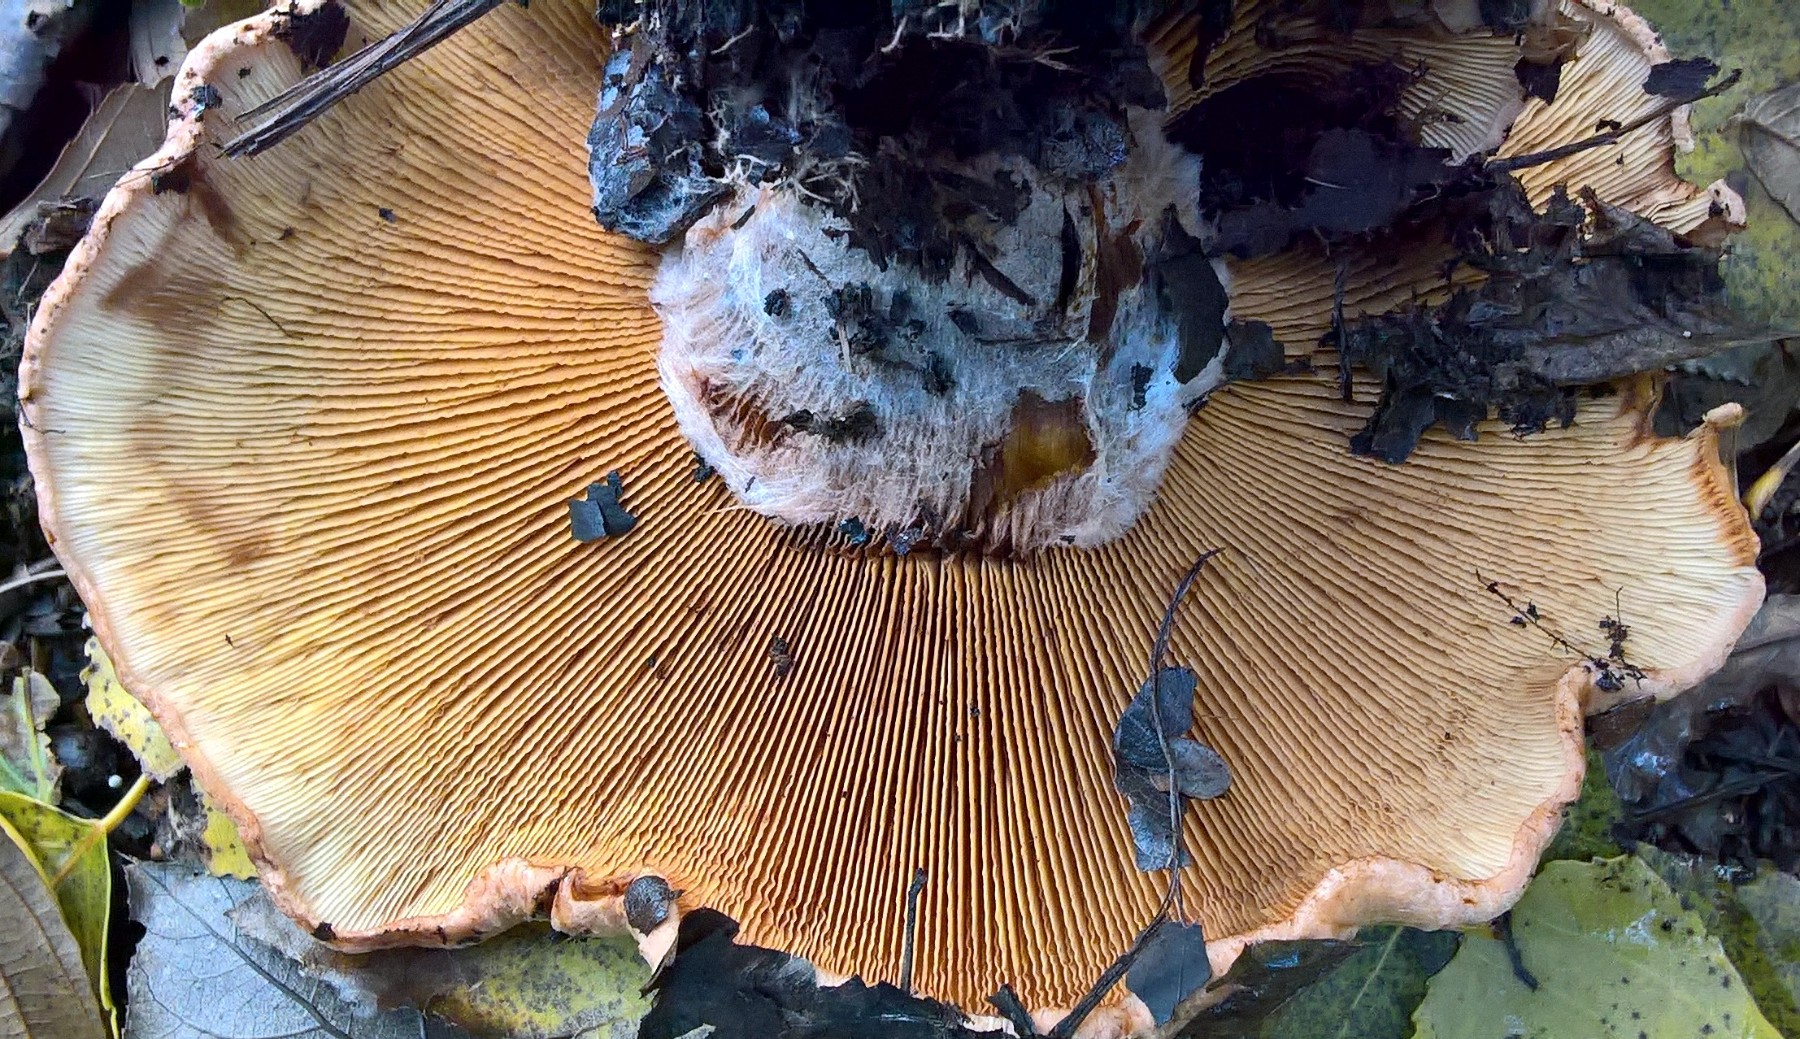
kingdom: Fungi
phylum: Basidiomycota
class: Agaricomycetes
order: Boletales
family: Paxillaceae
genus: Paxillus
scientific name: Paxillus rubicundulus
